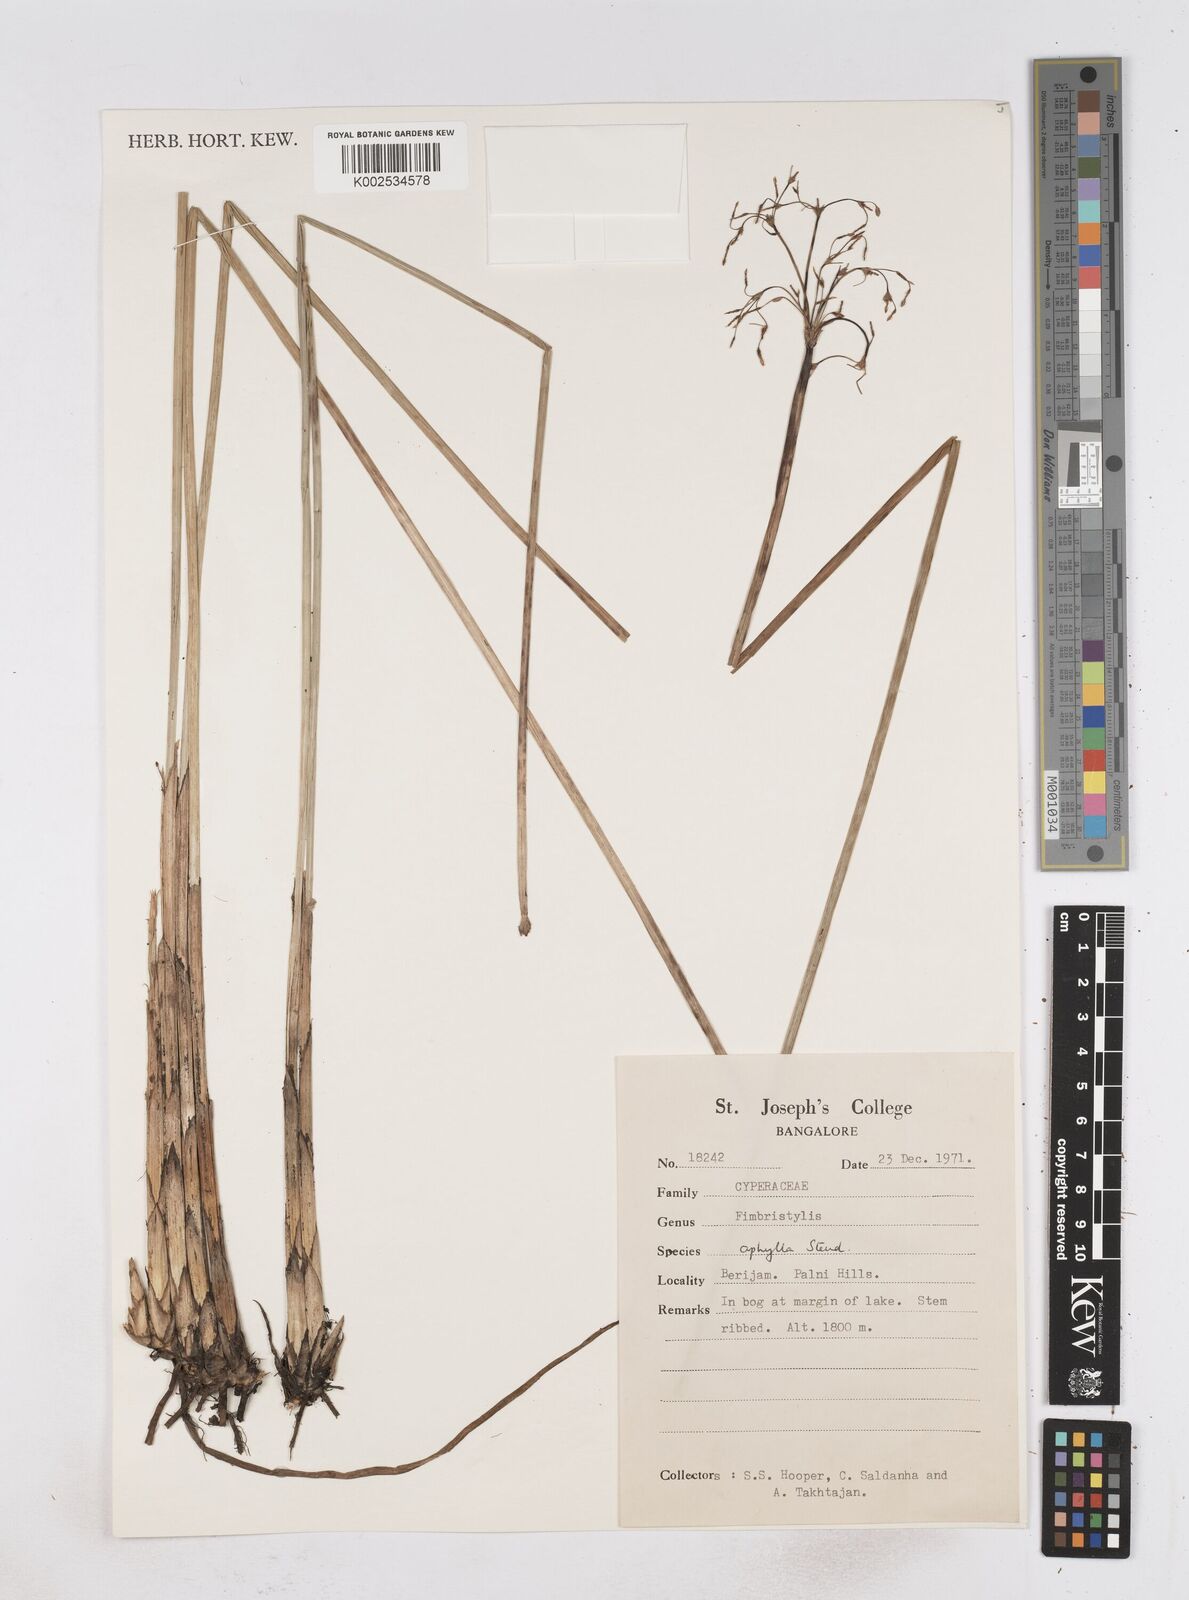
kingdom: Plantae
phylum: Tracheophyta
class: Liliopsida
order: Poales
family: Cyperaceae
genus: Fimbristylis
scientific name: Fimbristylis aphylla
